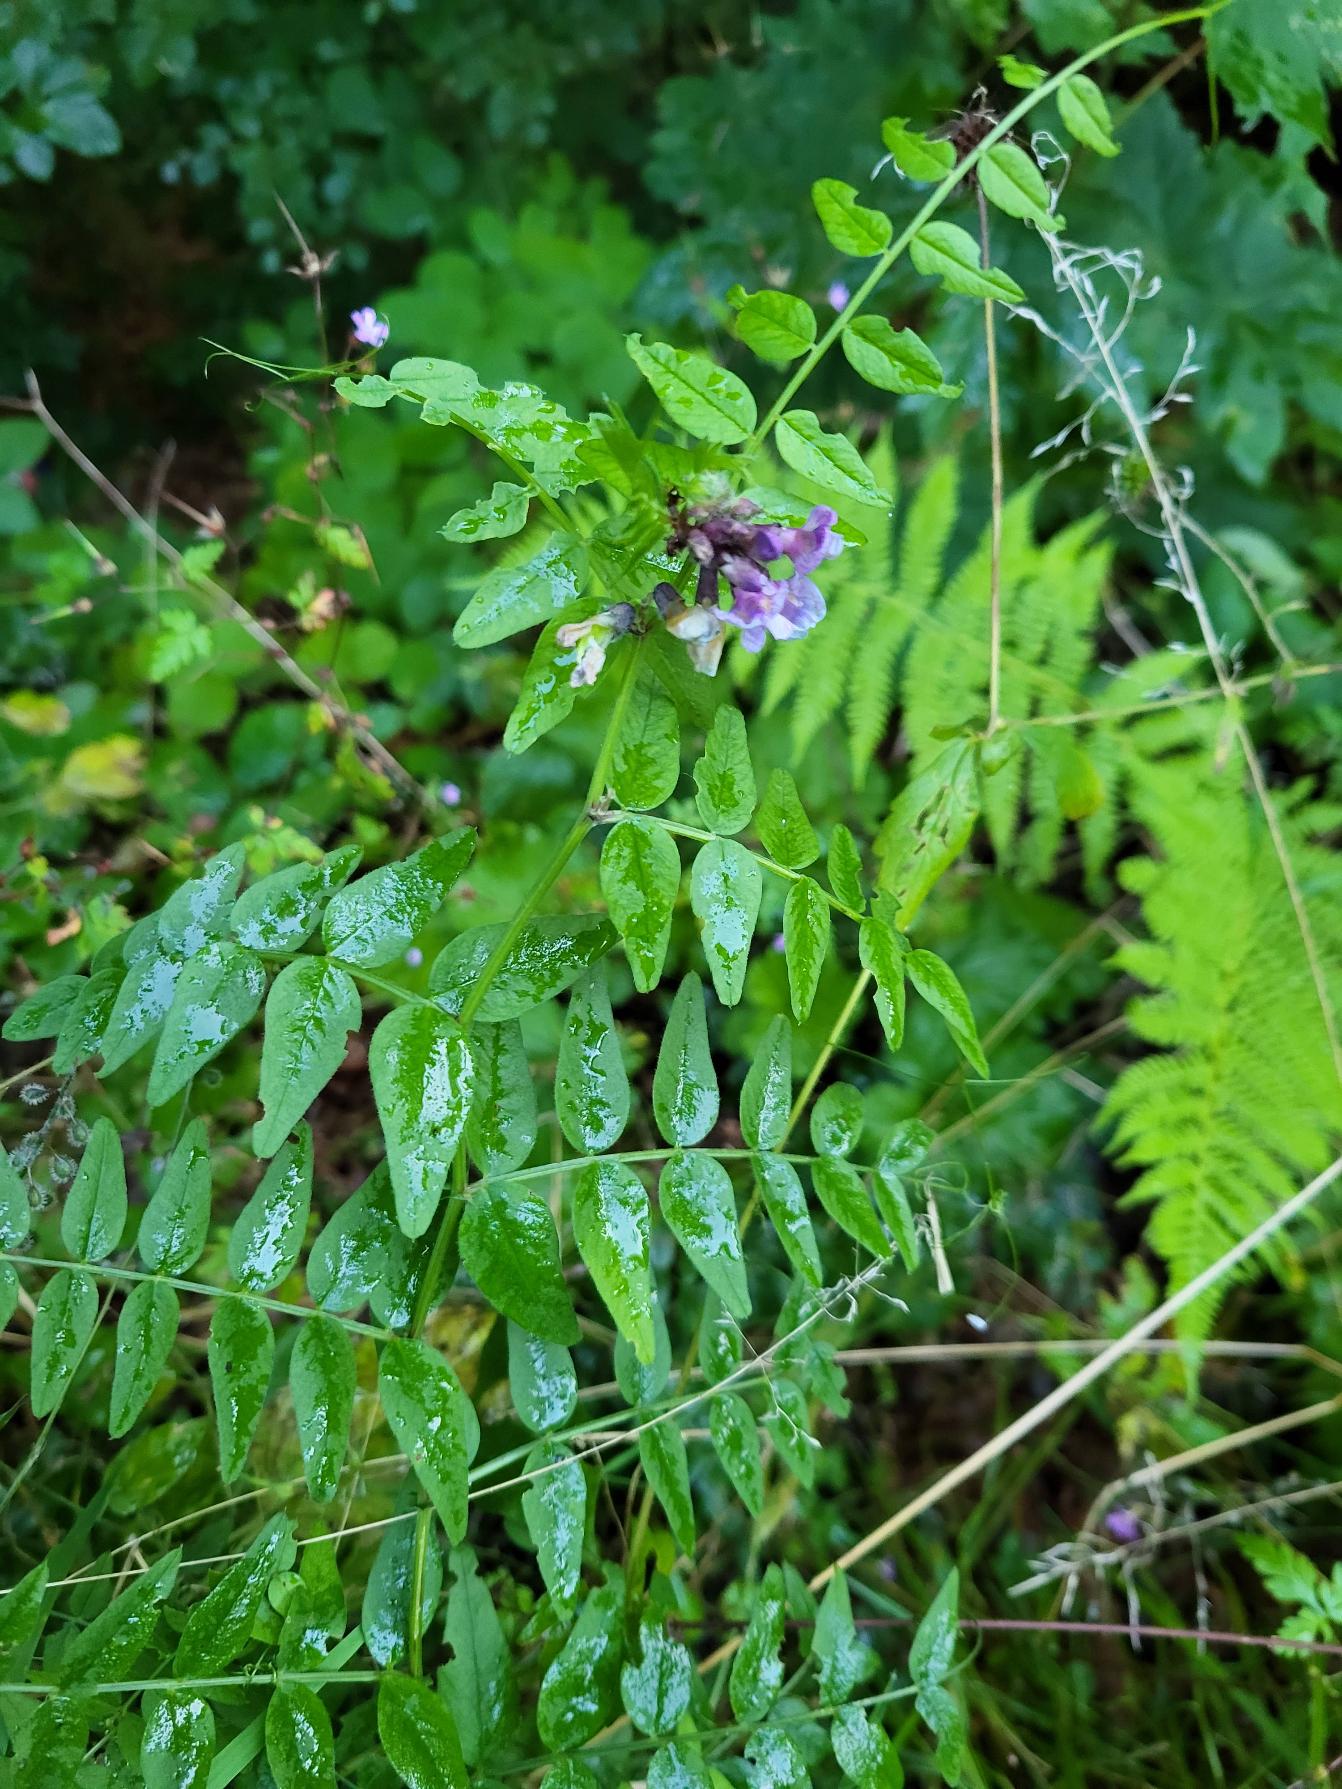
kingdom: Plantae
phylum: Tracheophyta
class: Magnoliopsida
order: Fabales
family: Fabaceae
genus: Vicia
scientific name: Vicia sepium
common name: Gærde-vikke
